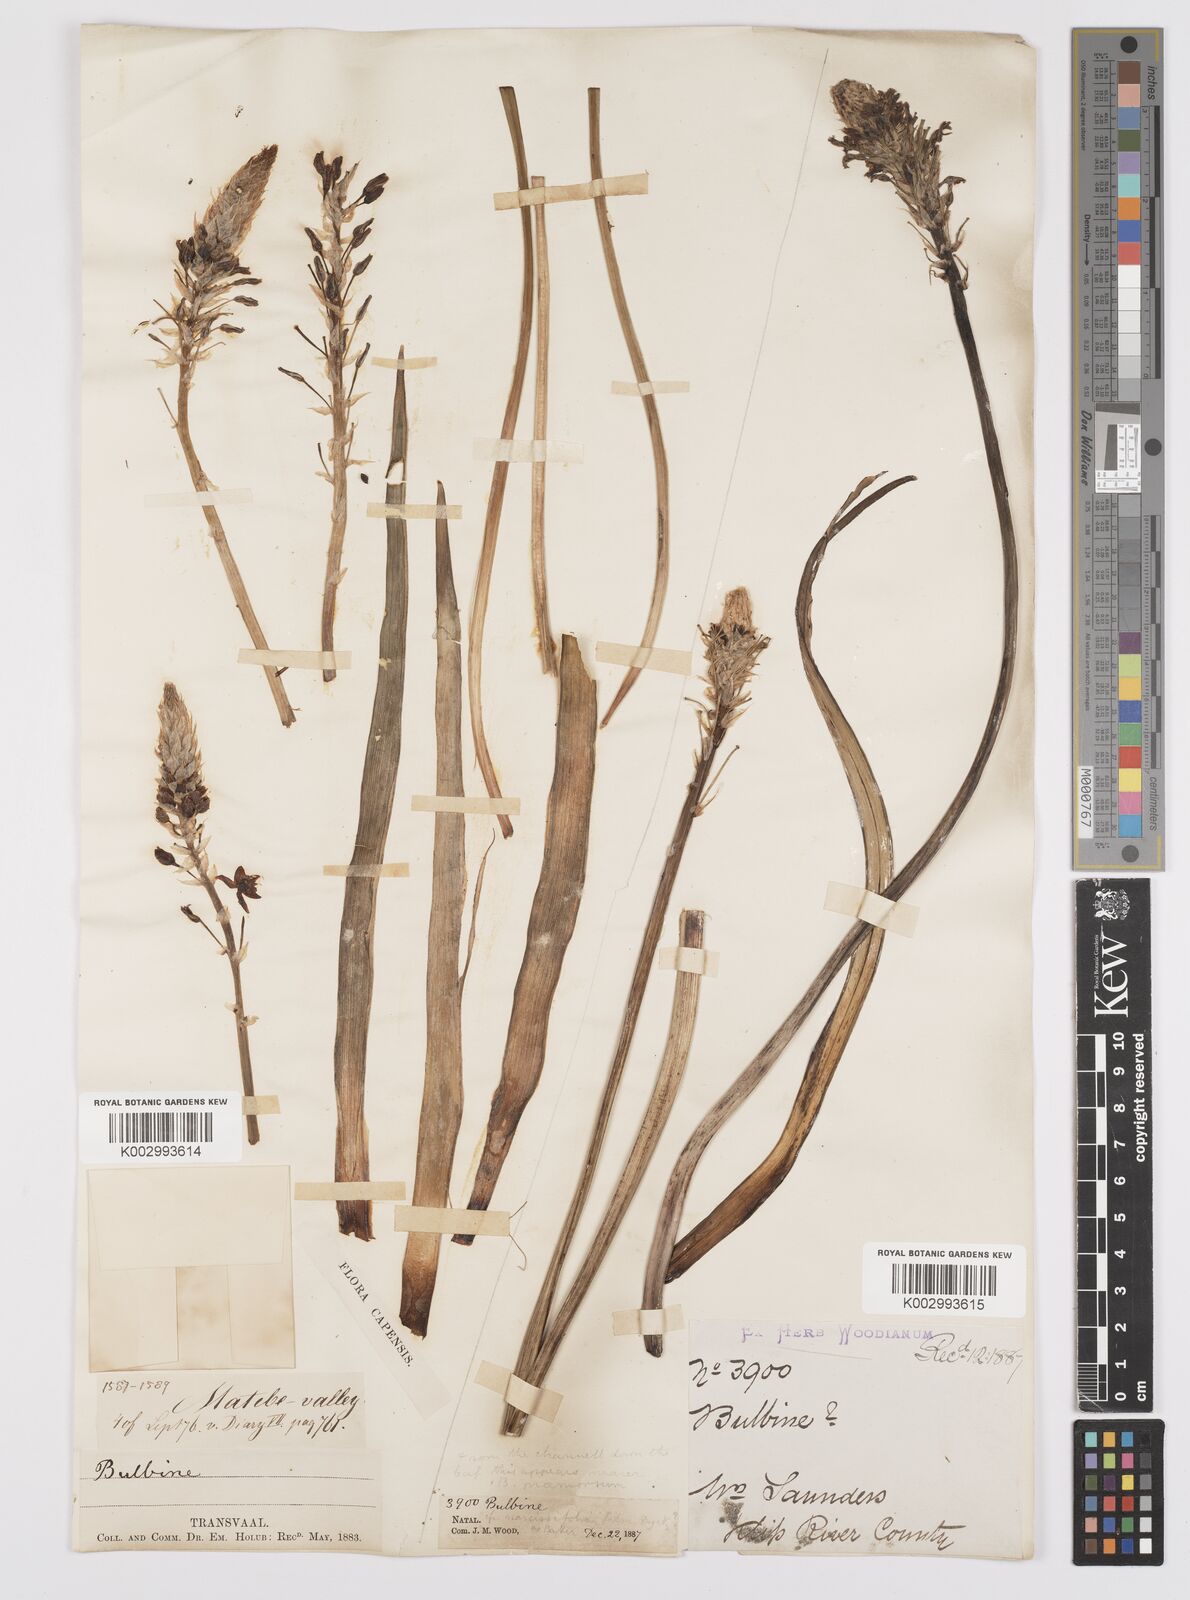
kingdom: Plantae
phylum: Tracheophyta
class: Liliopsida
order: Asparagales
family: Asphodelaceae
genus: Bulbine
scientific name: Bulbine narcissifolia
